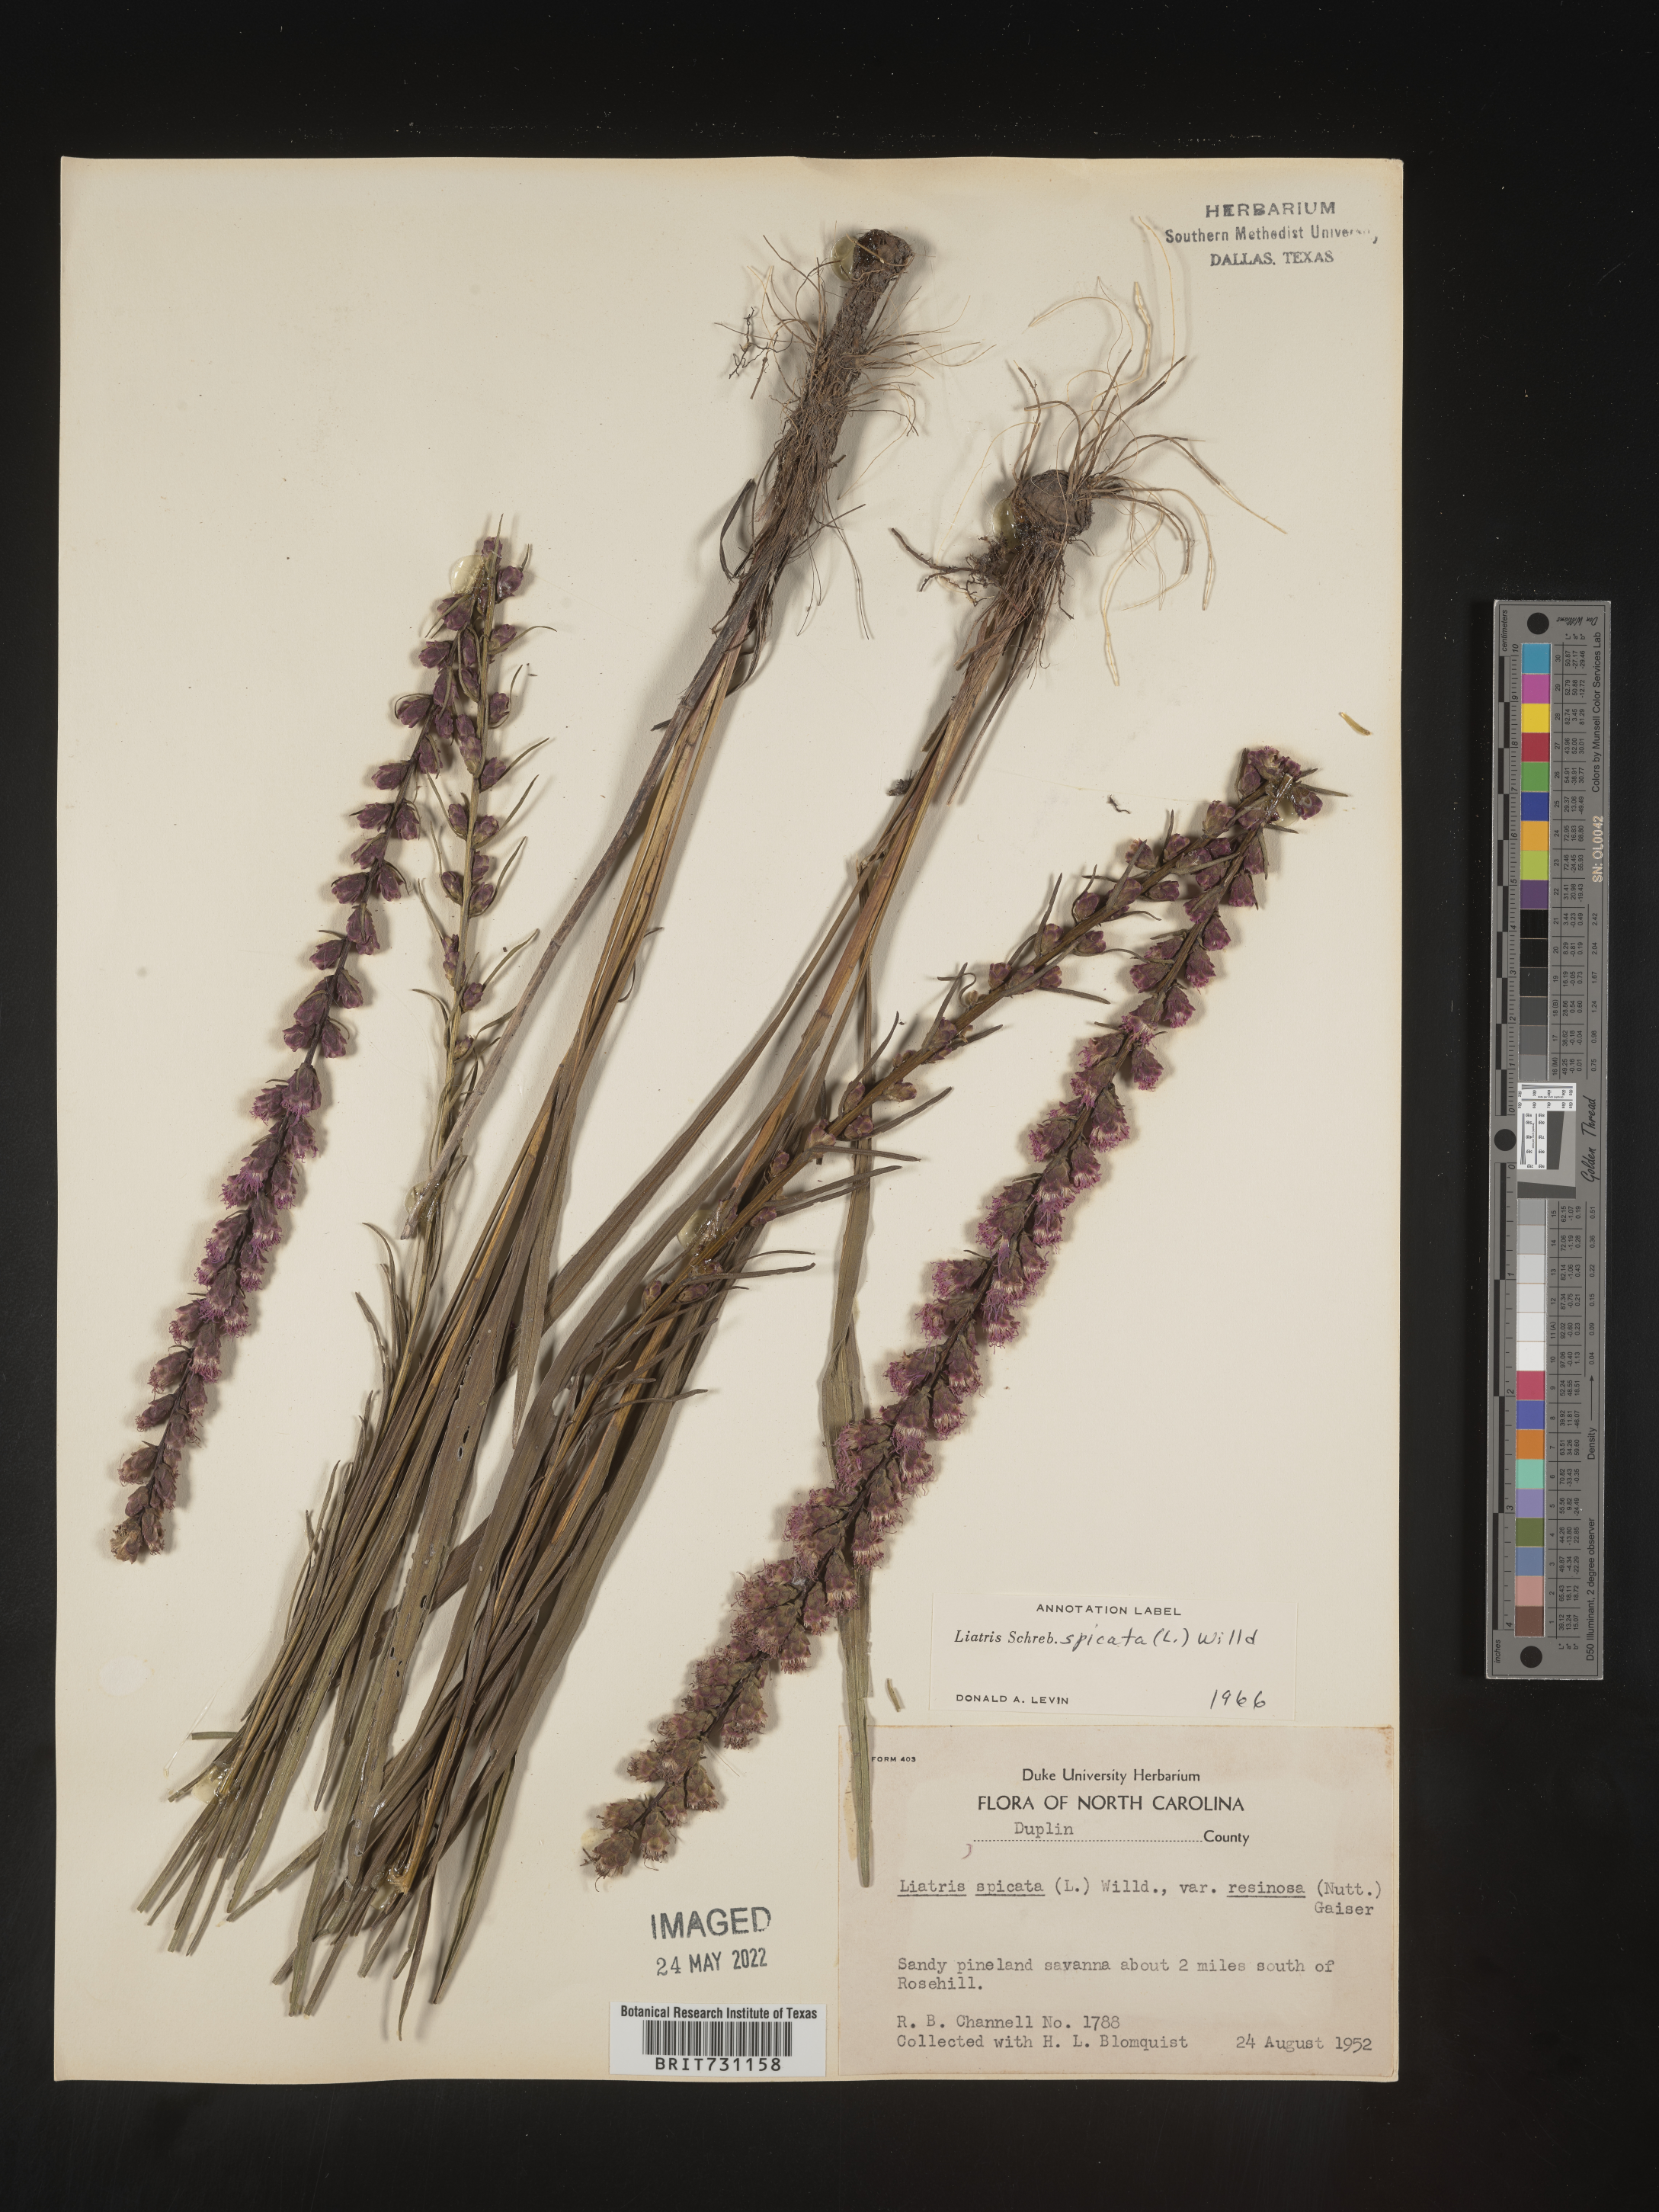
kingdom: Plantae
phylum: Tracheophyta
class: Magnoliopsida
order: Asterales
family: Asteraceae
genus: Liatris
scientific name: Liatris spicata
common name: Florist gayfeather
